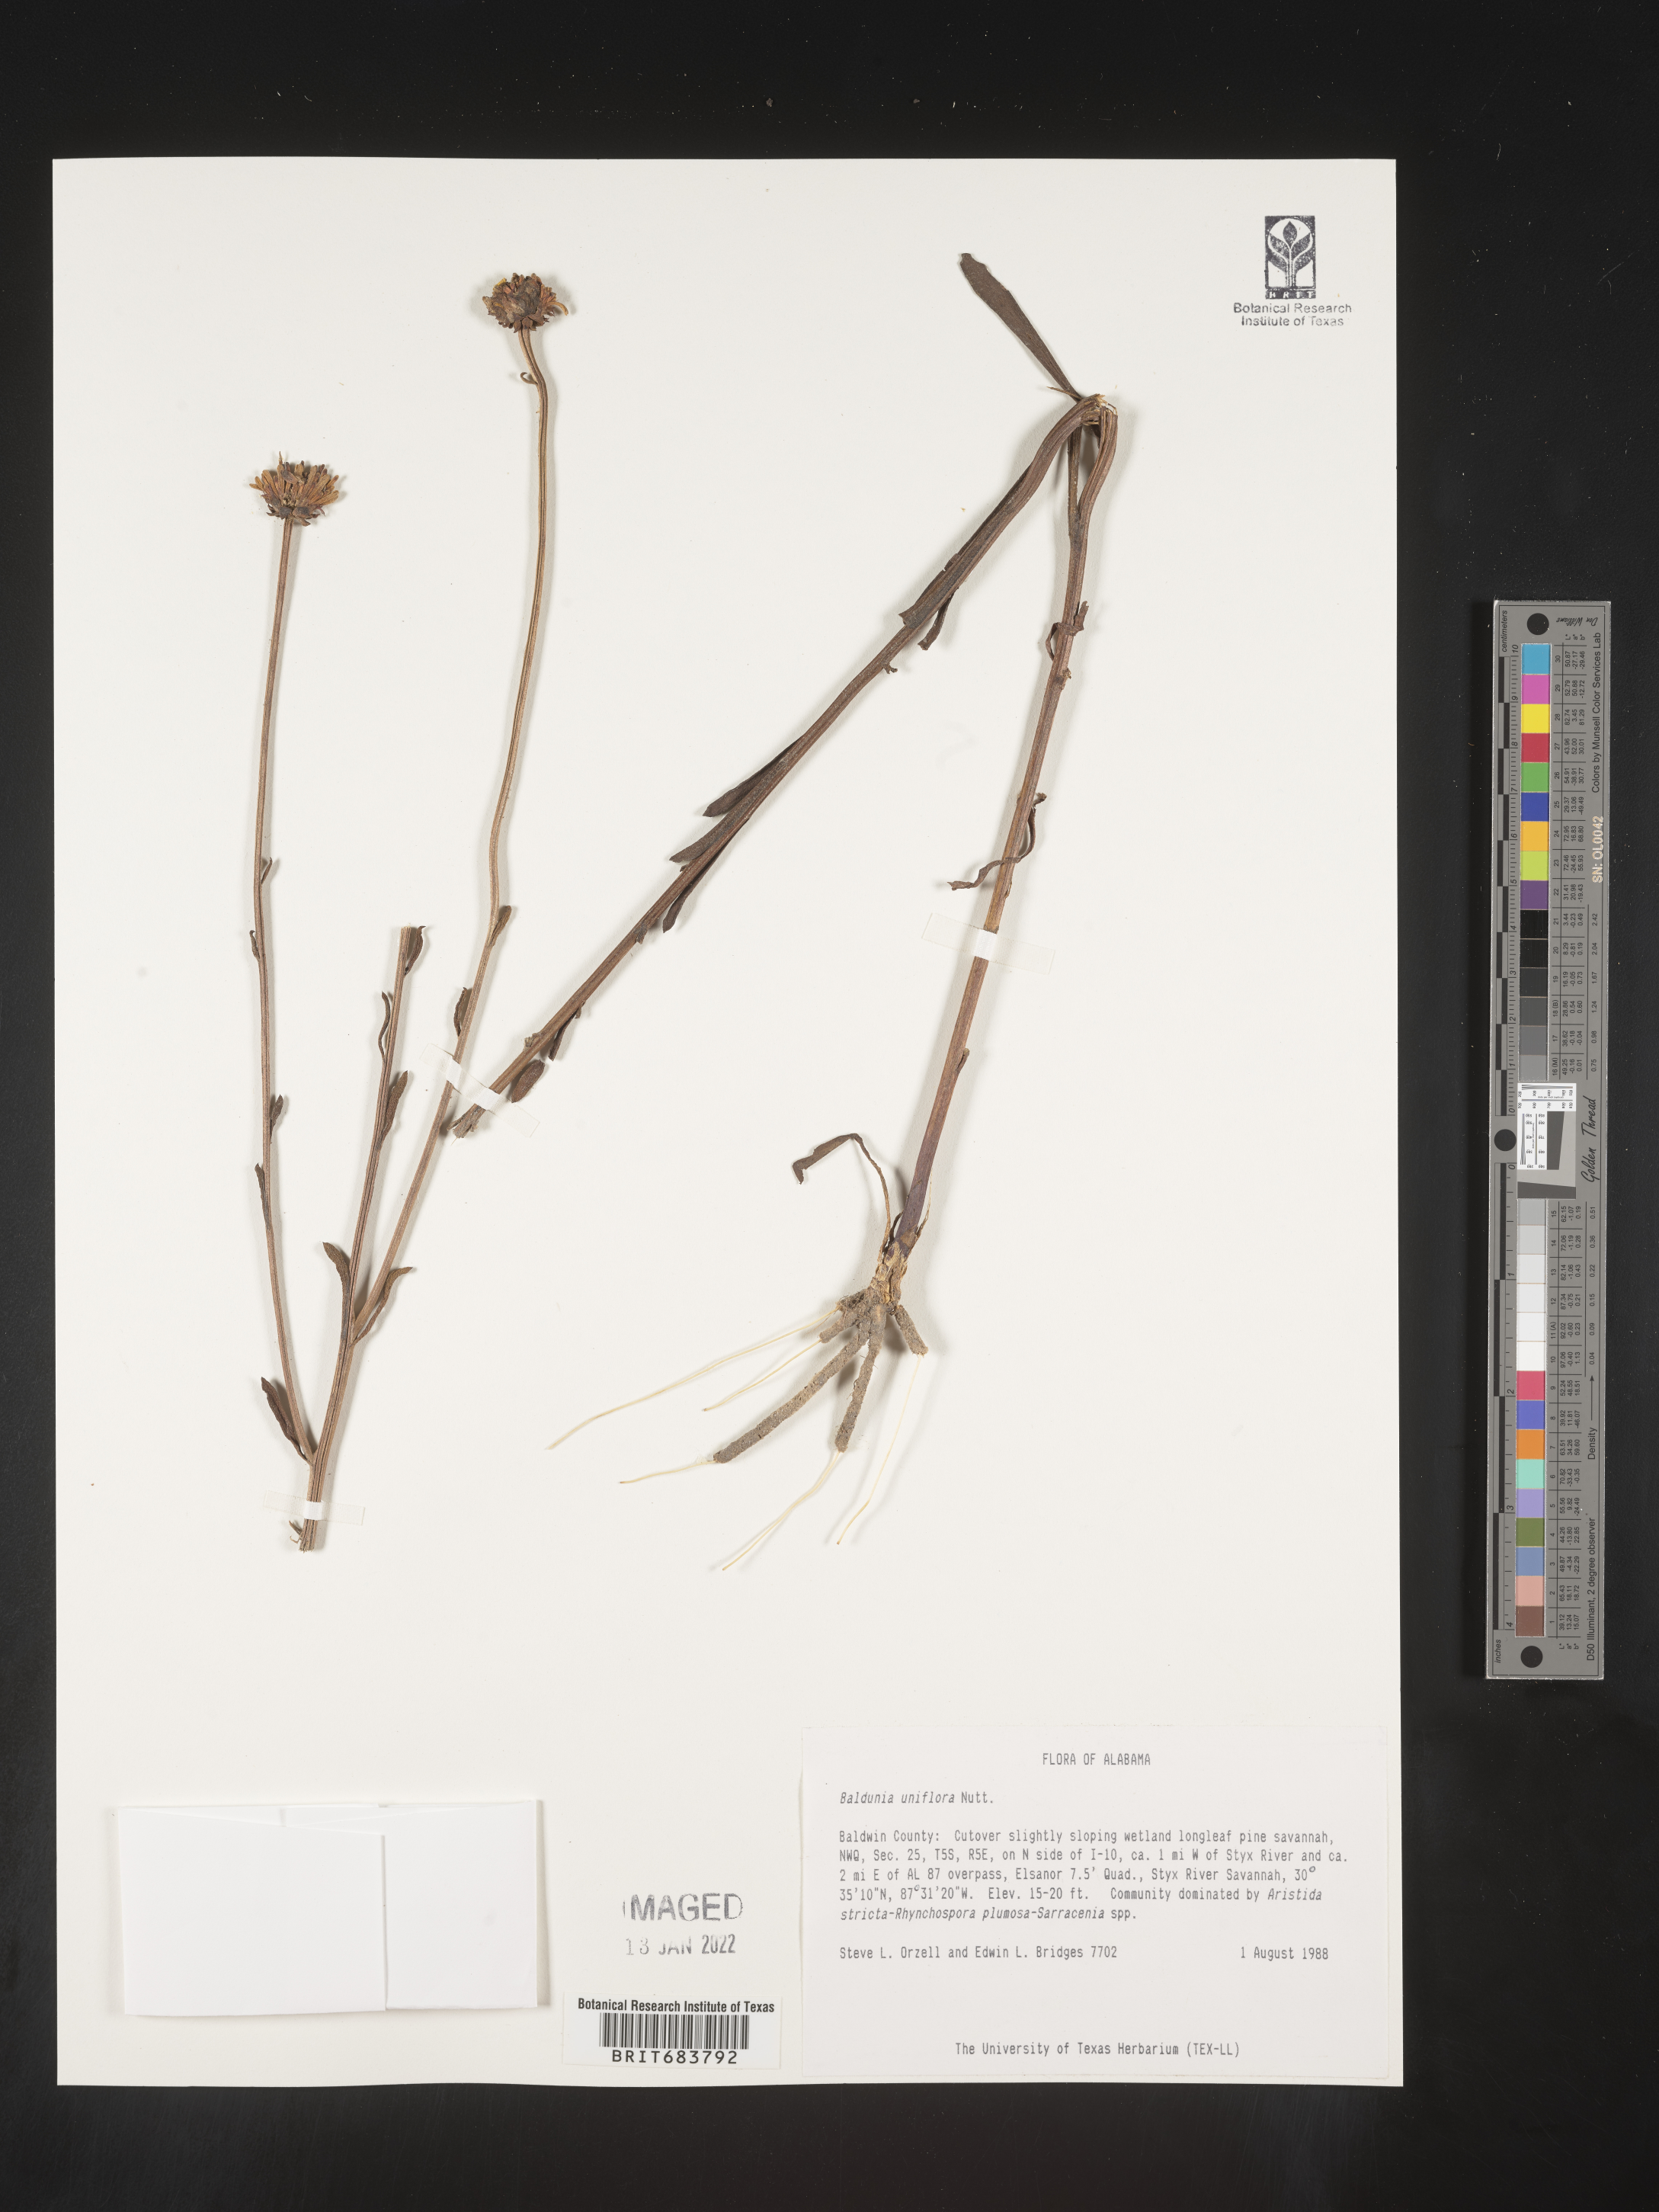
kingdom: Plantae
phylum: Tracheophyta
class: Magnoliopsida
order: Asterales
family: Asteraceae
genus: Balduina
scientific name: Balduina uniflora
